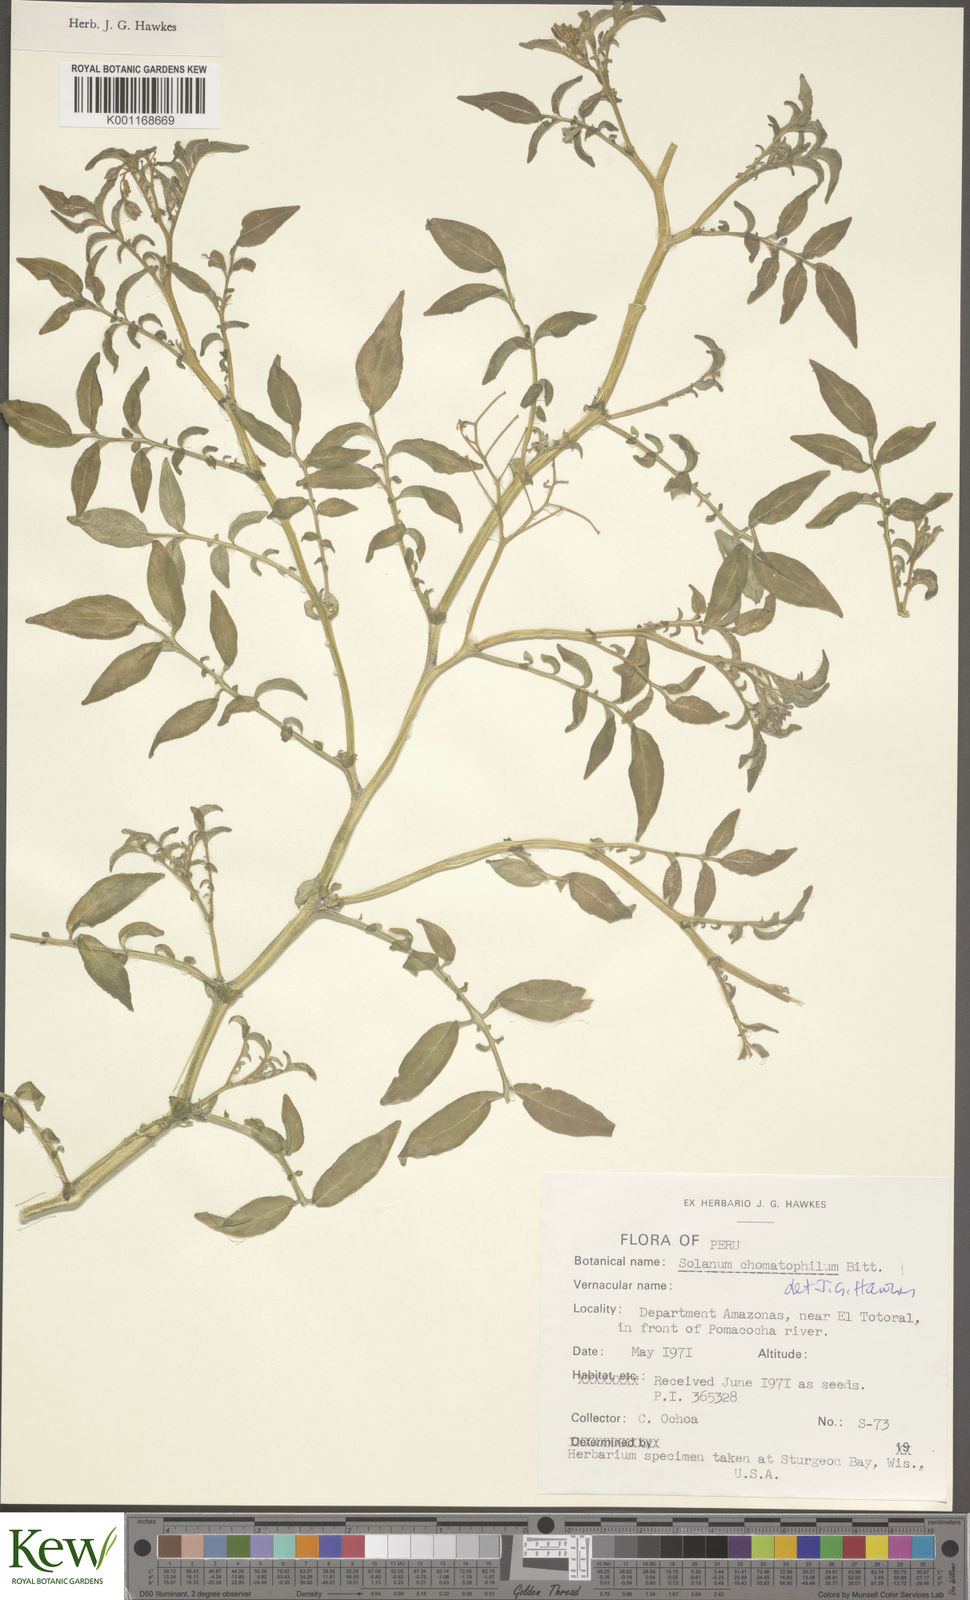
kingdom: Plantae
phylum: Tracheophyta
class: Magnoliopsida
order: Solanales
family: Solanaceae
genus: Solanum
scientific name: Solanum chomatophilum
